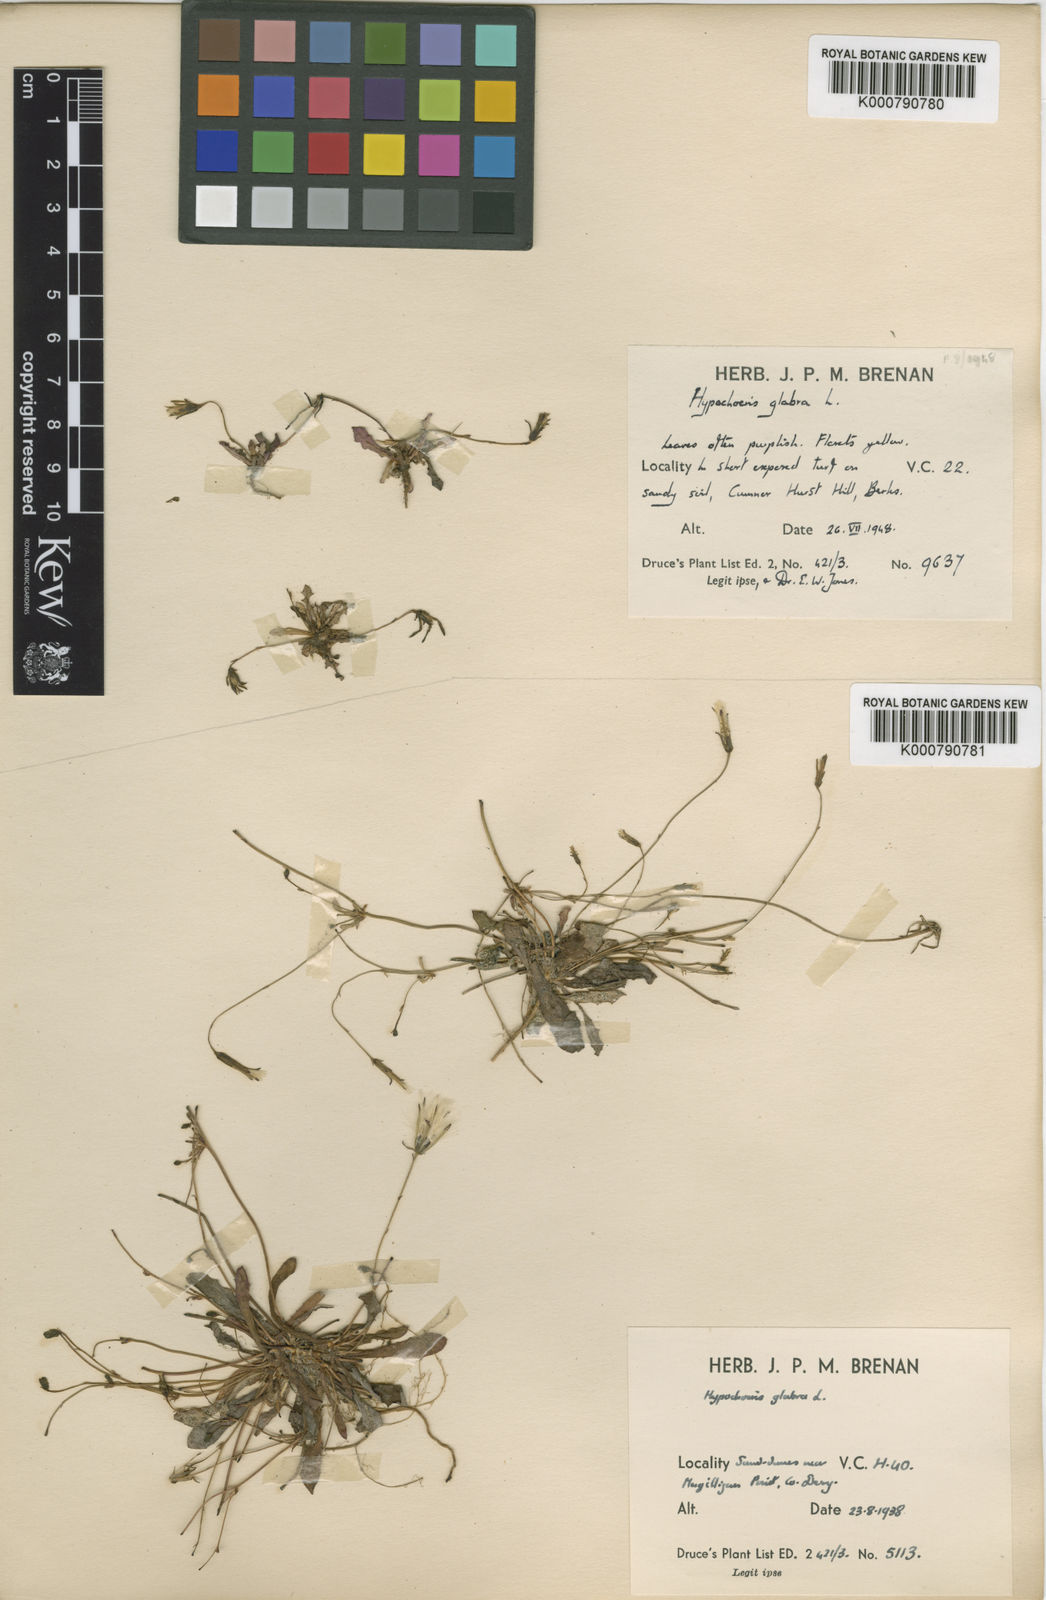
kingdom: Plantae
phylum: Tracheophyta
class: Magnoliopsida
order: Asterales
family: Asteraceae
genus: Hypochaeris
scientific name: Hypochaeris glabra
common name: Smooth catsear
